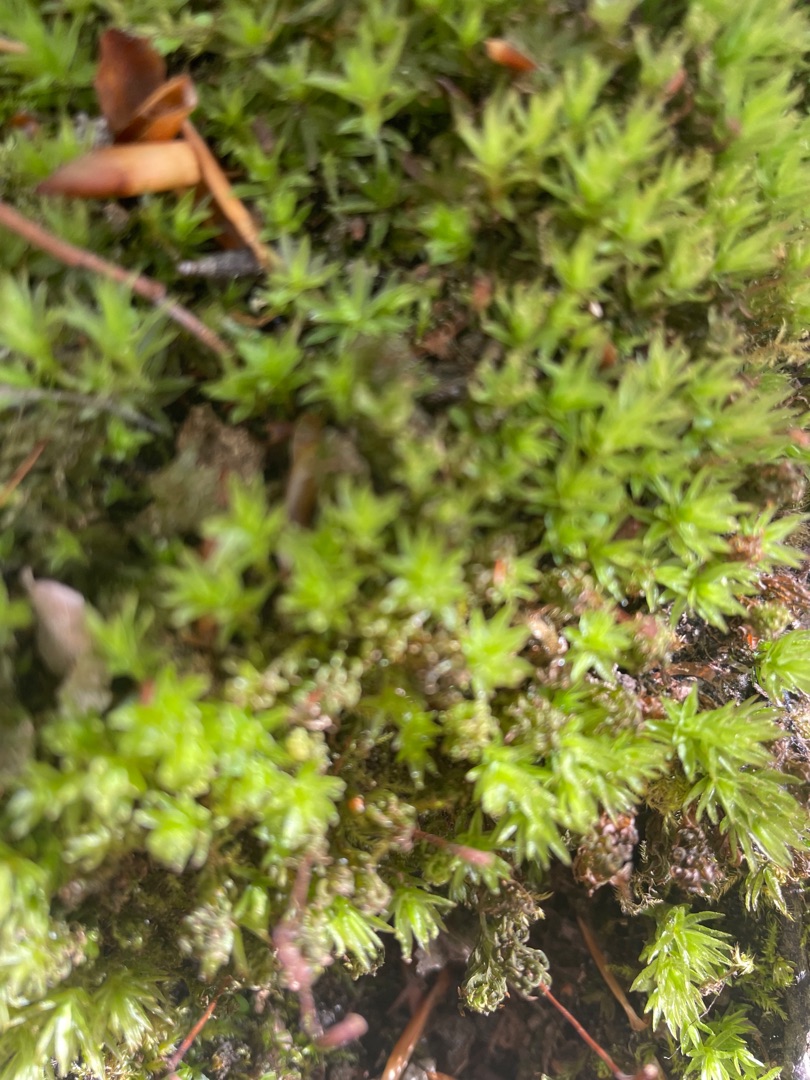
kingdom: Plantae
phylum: Bryophyta
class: Polytrichopsida
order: Polytrichales
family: Polytrichaceae
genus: Atrichum
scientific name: Atrichum undulatum
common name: Bølget katrinemos
